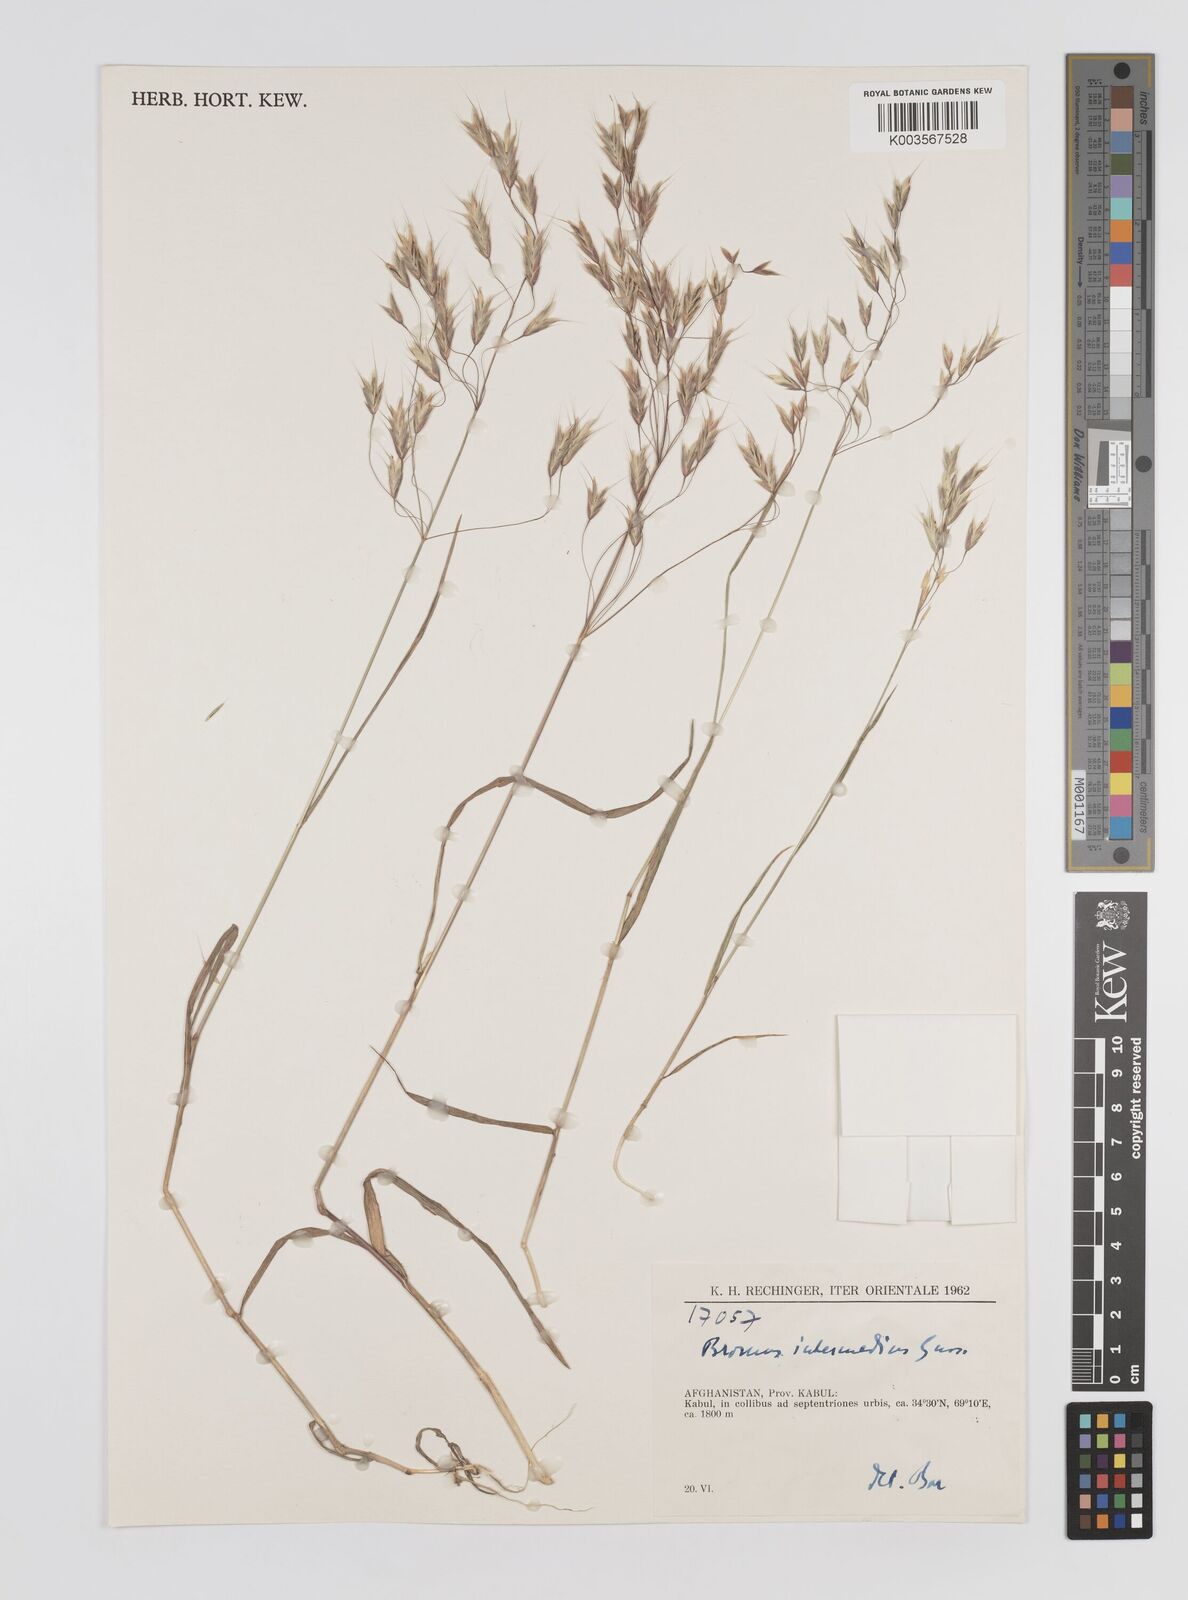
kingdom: Plantae
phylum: Tracheophyta
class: Liliopsida
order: Poales
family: Poaceae
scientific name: Poaceae
